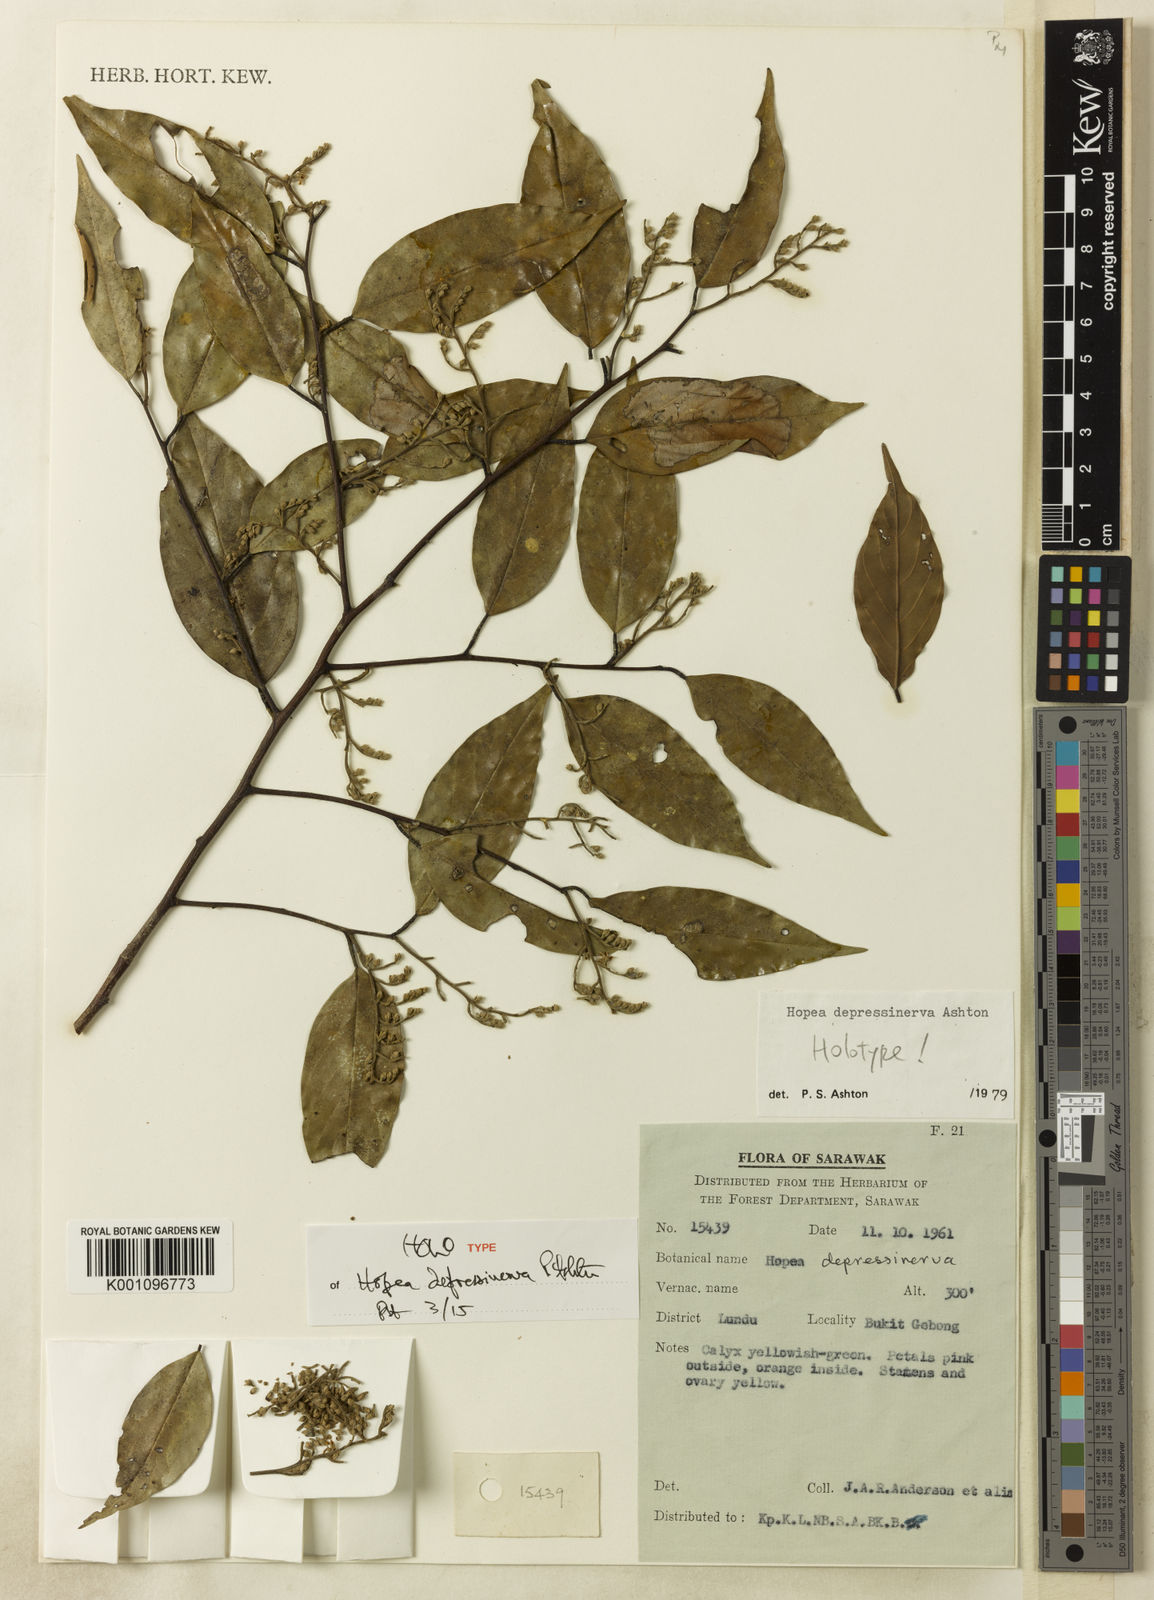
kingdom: Plantae
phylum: Tracheophyta
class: Magnoliopsida
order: Malvales
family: Dipterocarpaceae
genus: Hopea
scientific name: Hopea depressinerva
